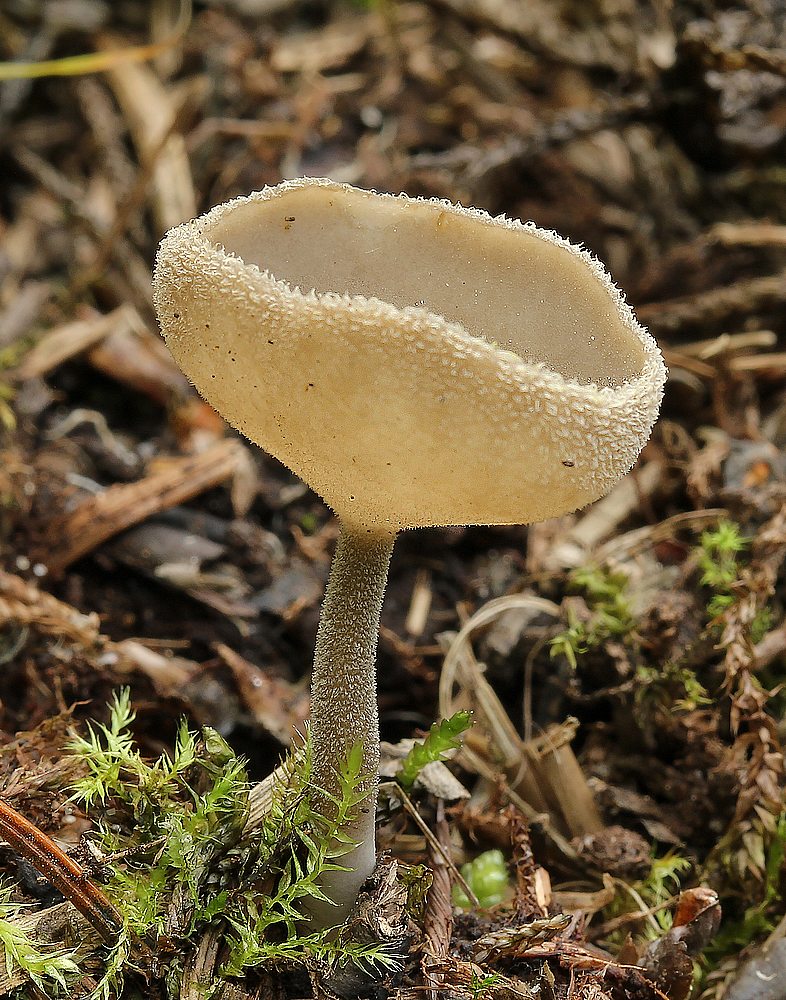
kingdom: Fungi
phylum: Ascomycota
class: Pezizomycetes
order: Pezizales
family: Helvellaceae
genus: Helvella
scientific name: Helvella macropus
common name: højstokket foldhat
